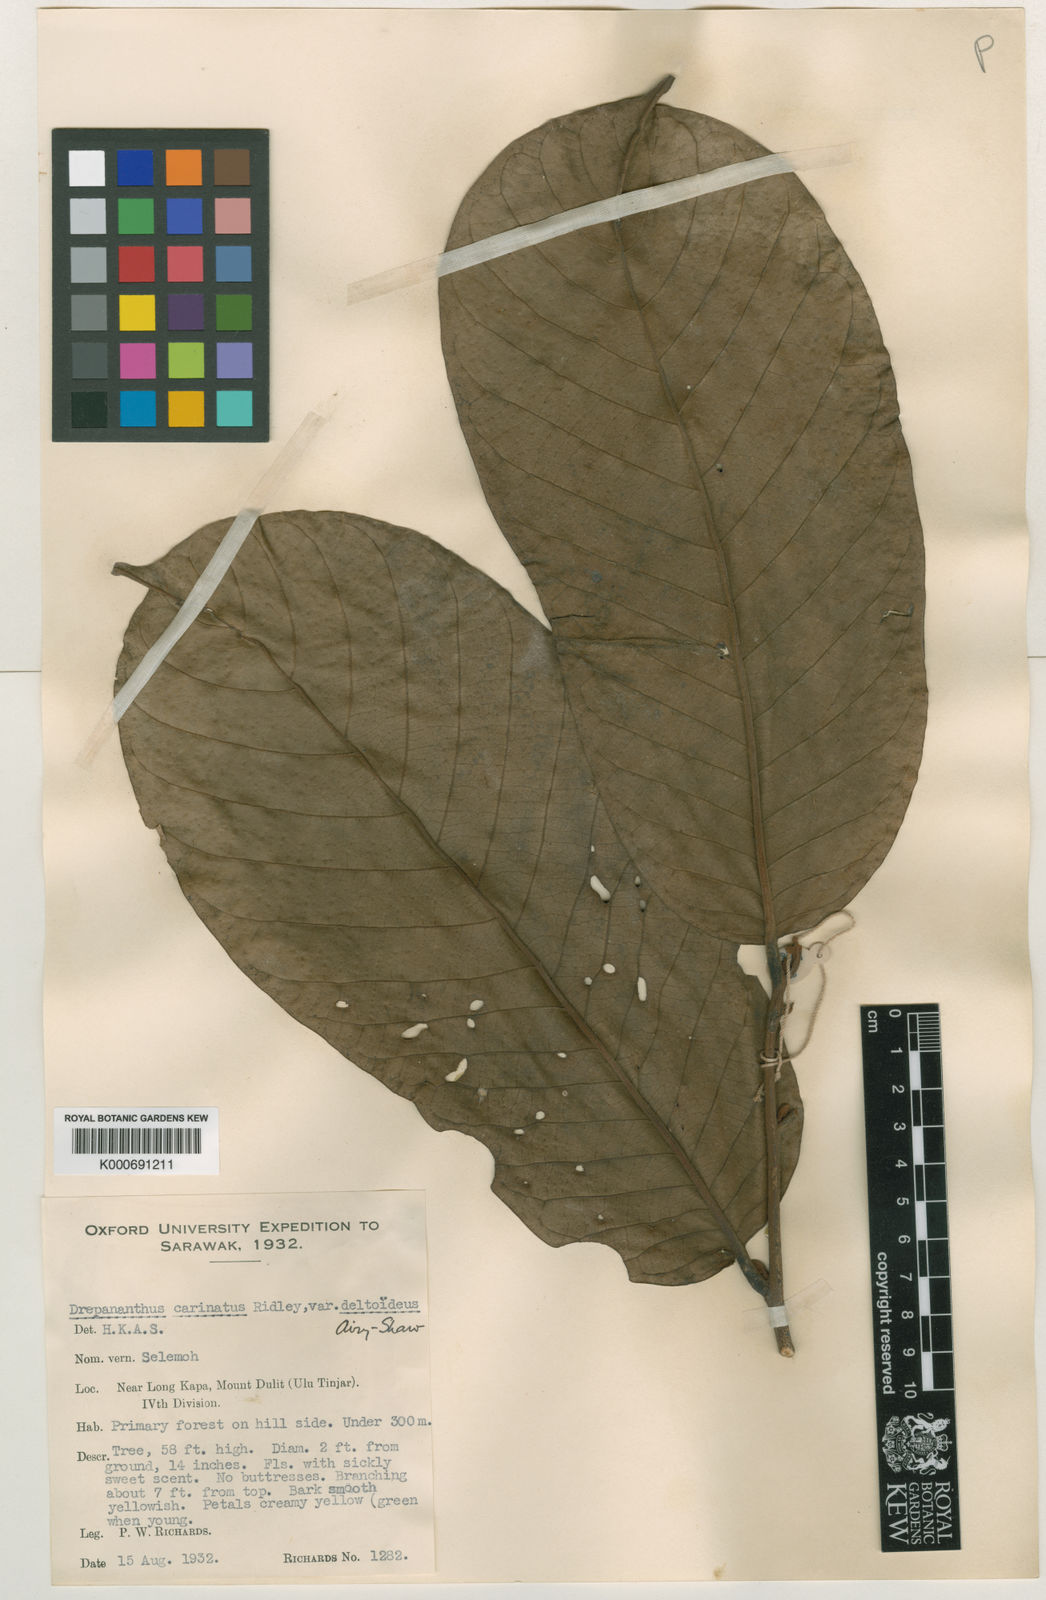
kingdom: Plantae
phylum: Tracheophyta
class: Magnoliopsida
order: Magnoliales
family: Annonaceae
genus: Drepananthus
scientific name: Drepananthus deltoideus
